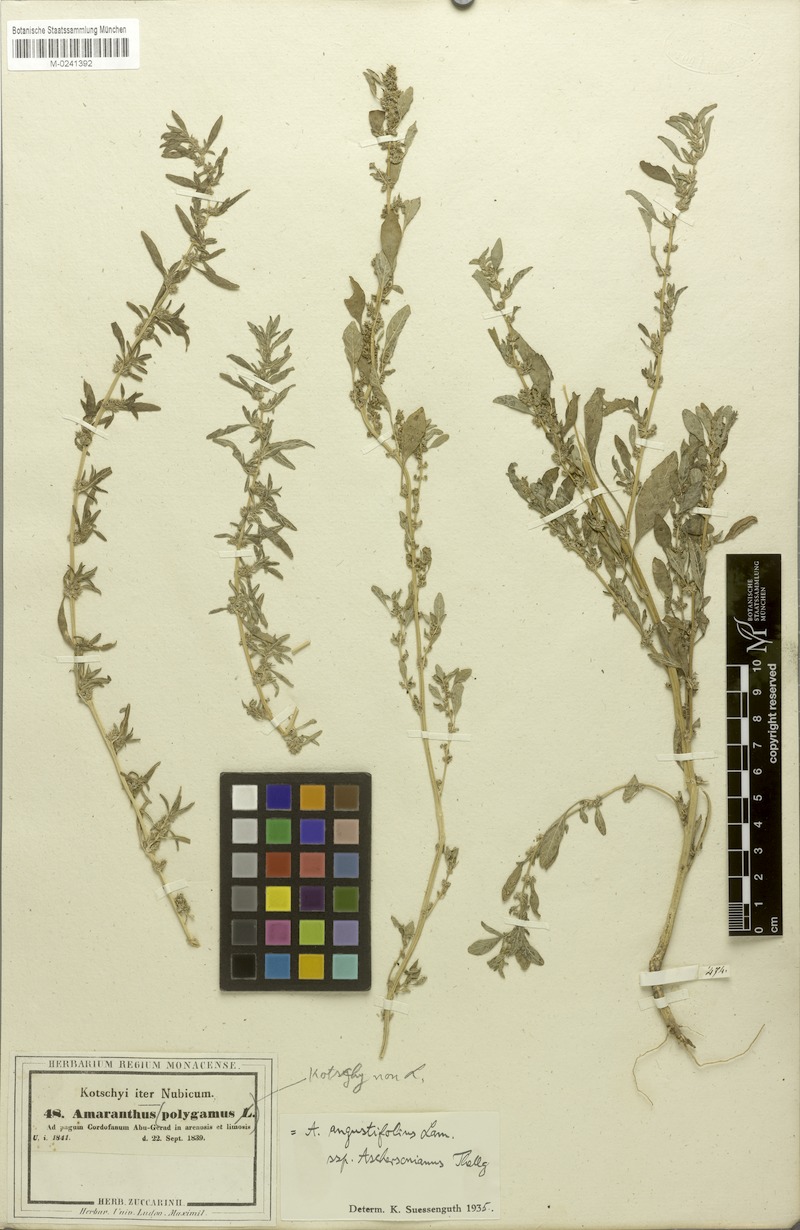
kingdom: Plantae
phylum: Tracheophyta
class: Magnoliopsida
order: Caryophyllales
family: Amaranthaceae
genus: Amaranthus
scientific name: Amaranthus graecizans
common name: Mediterranean amaranth
